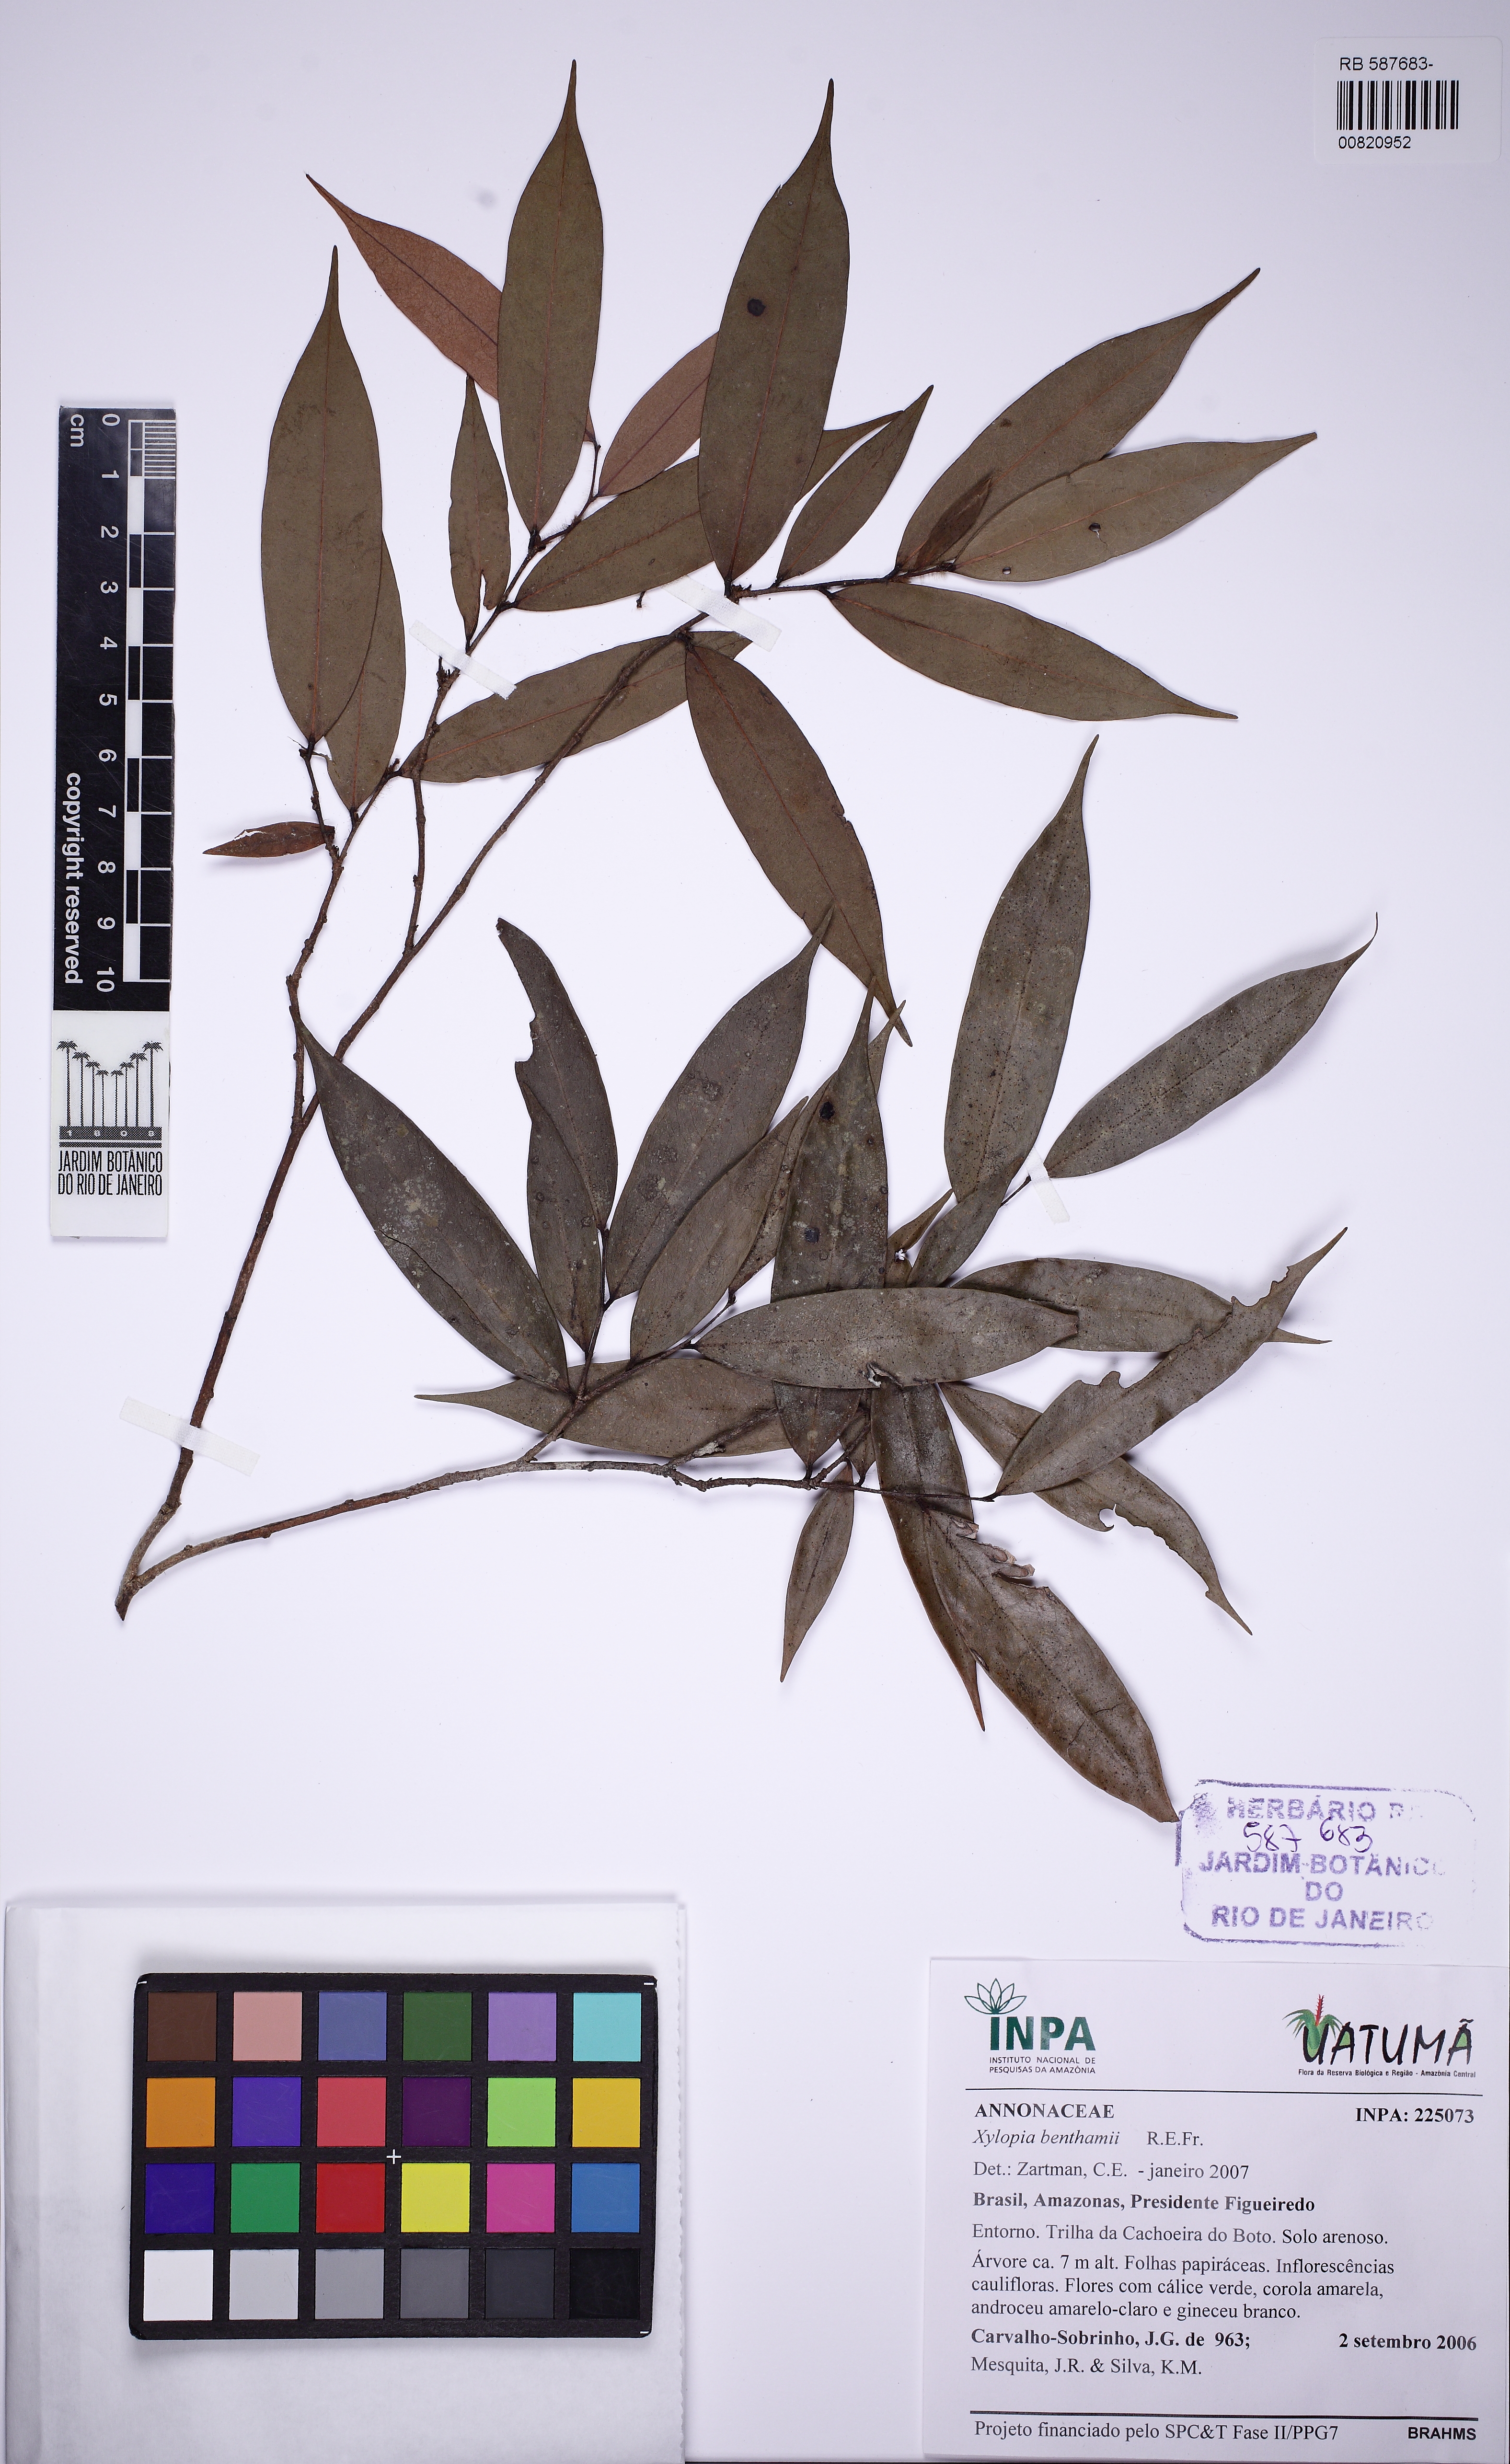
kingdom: Plantae
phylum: Tracheophyta
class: Magnoliopsida
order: Magnoliales
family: Annonaceae
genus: Xylopia
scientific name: Xylopia benthamii
